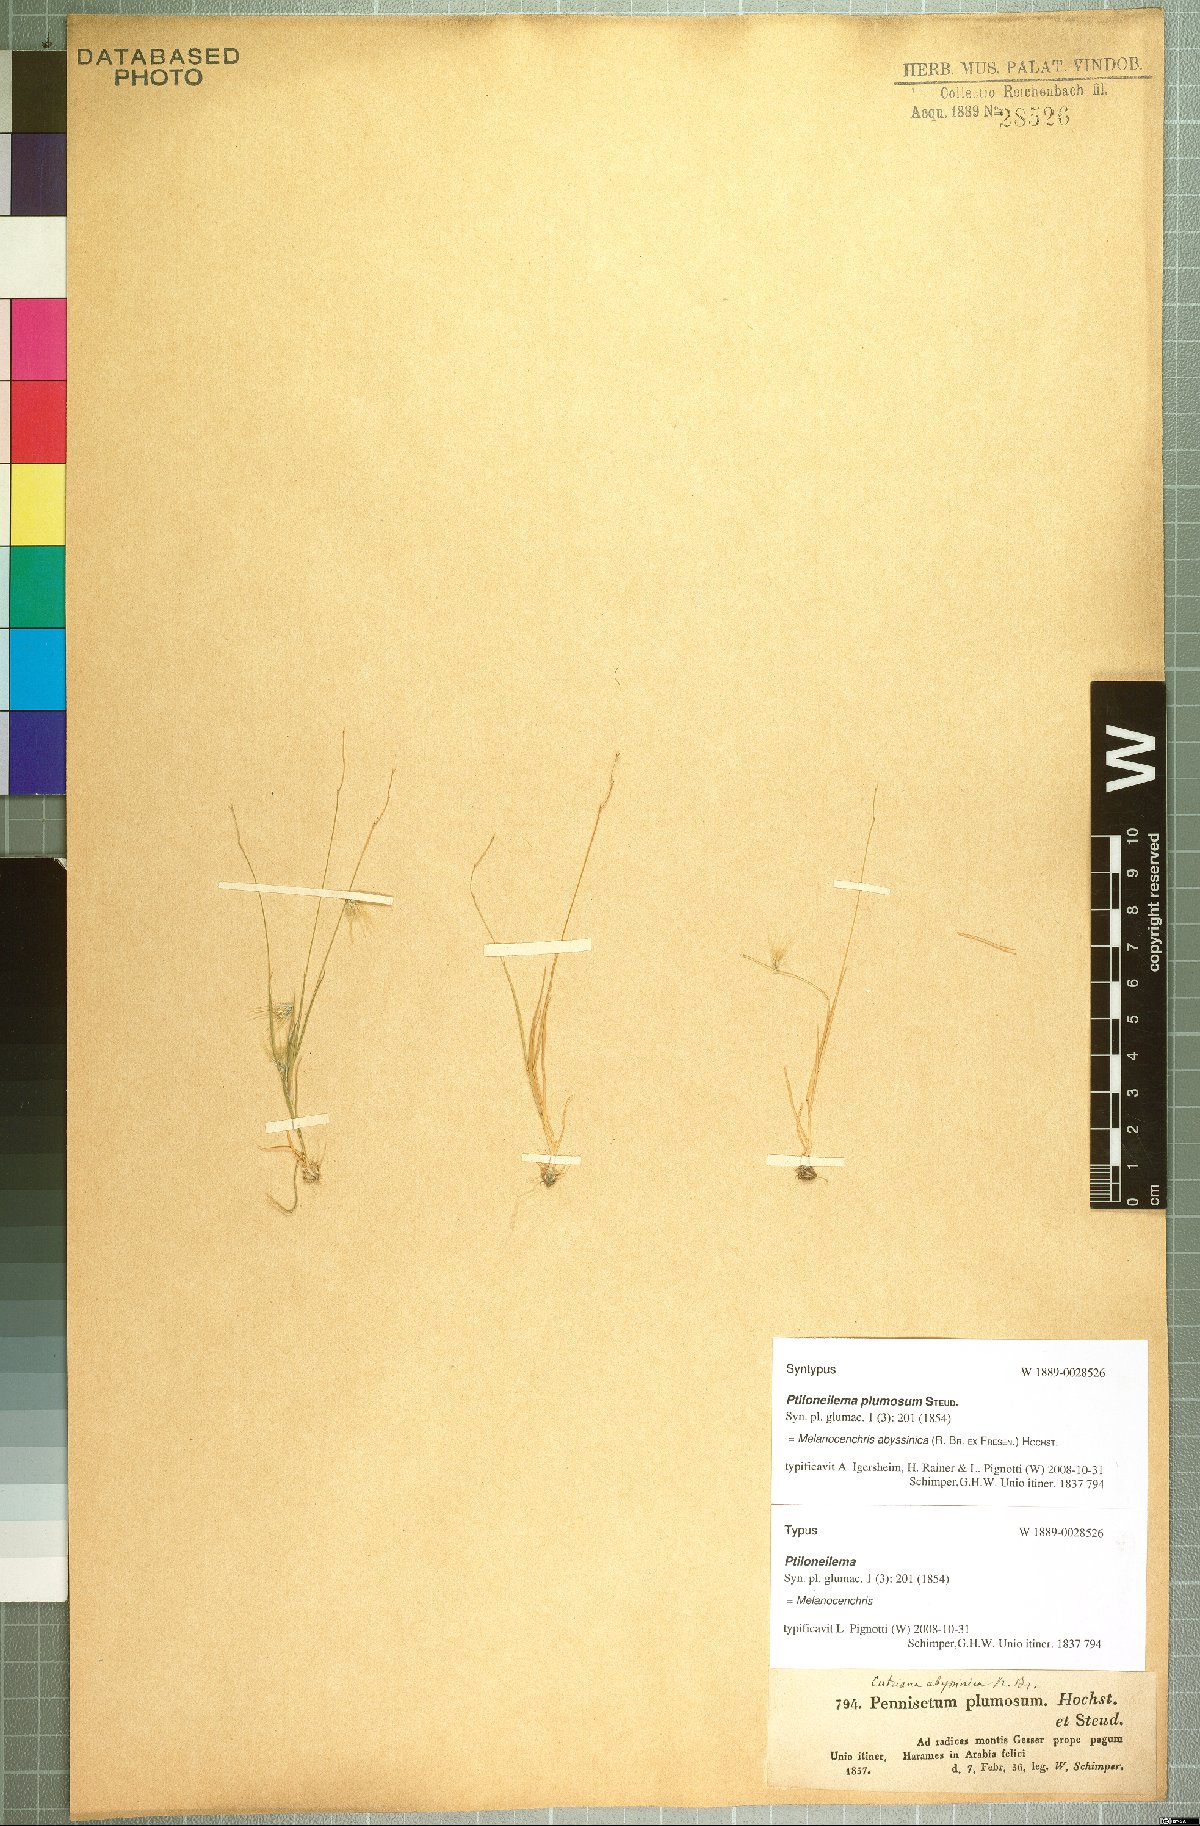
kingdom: Plantae
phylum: Tracheophyta
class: Liliopsida
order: Poales
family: Poaceae
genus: Melanocenchris
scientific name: Melanocenchris abyssinica
